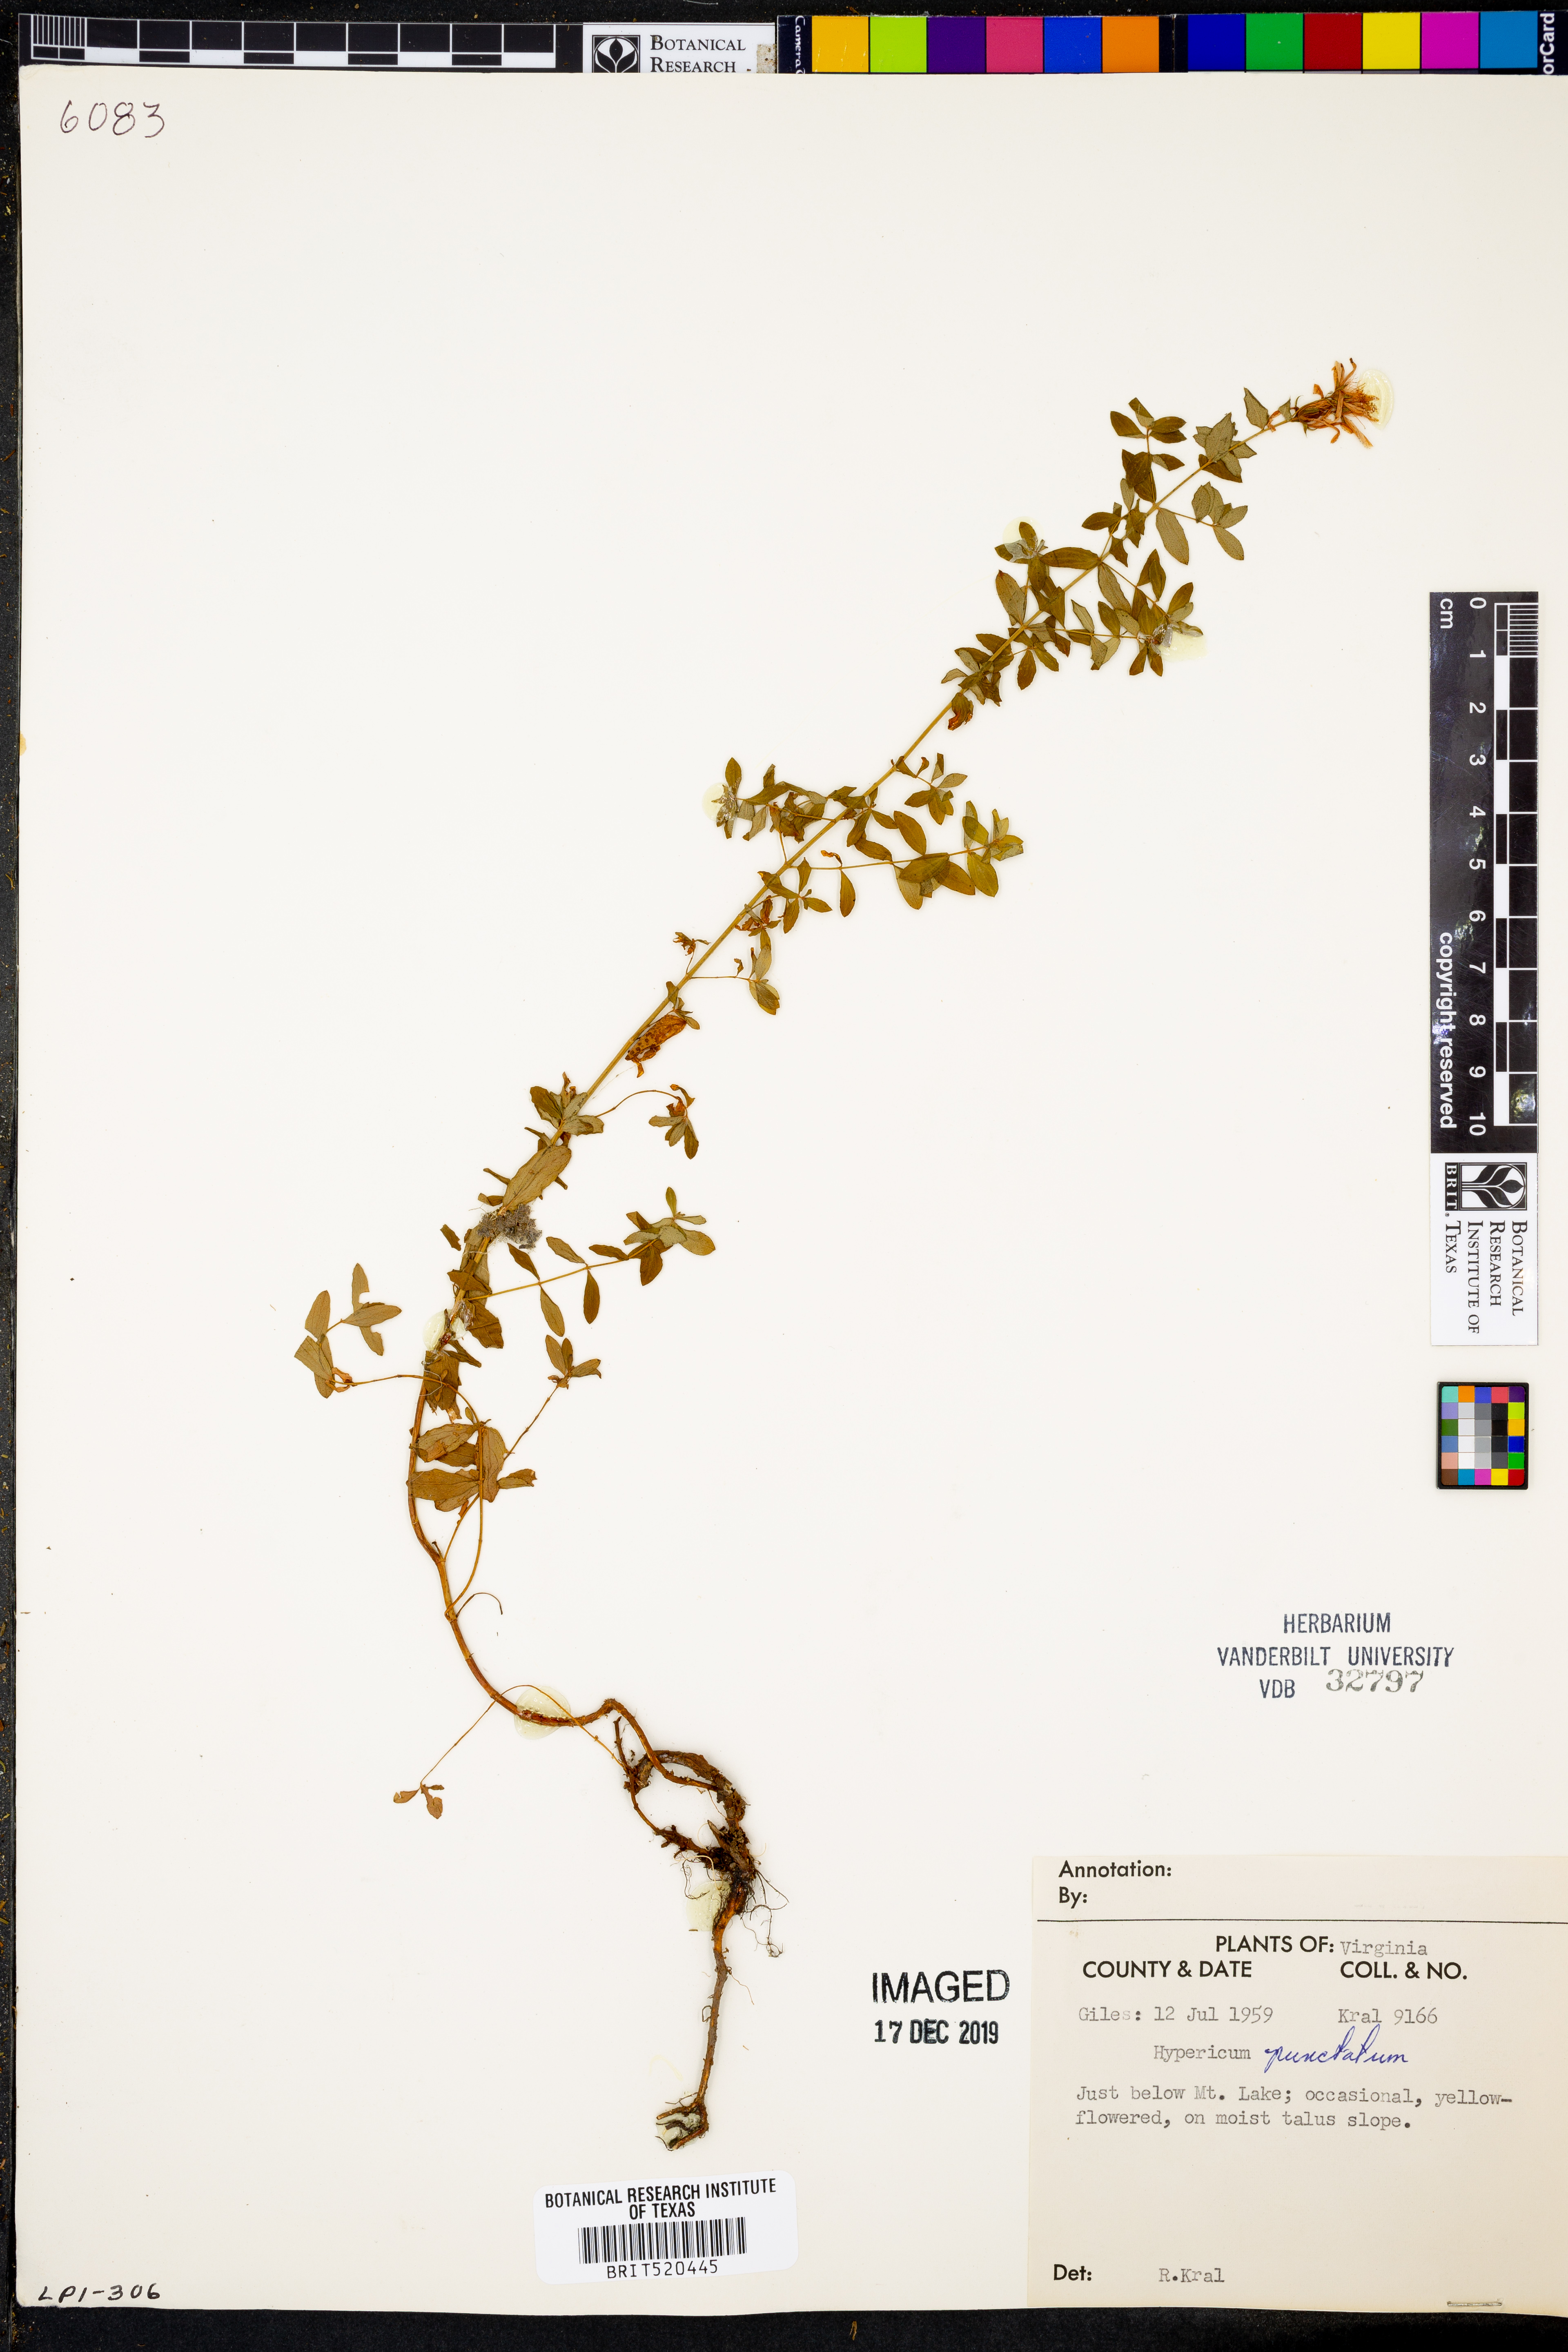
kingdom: Plantae
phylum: Tracheophyta
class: Magnoliopsida
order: Malpighiales
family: Hypericaceae
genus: Hypericum
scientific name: Hypericum punctatum
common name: Spotted st. john's-wort
